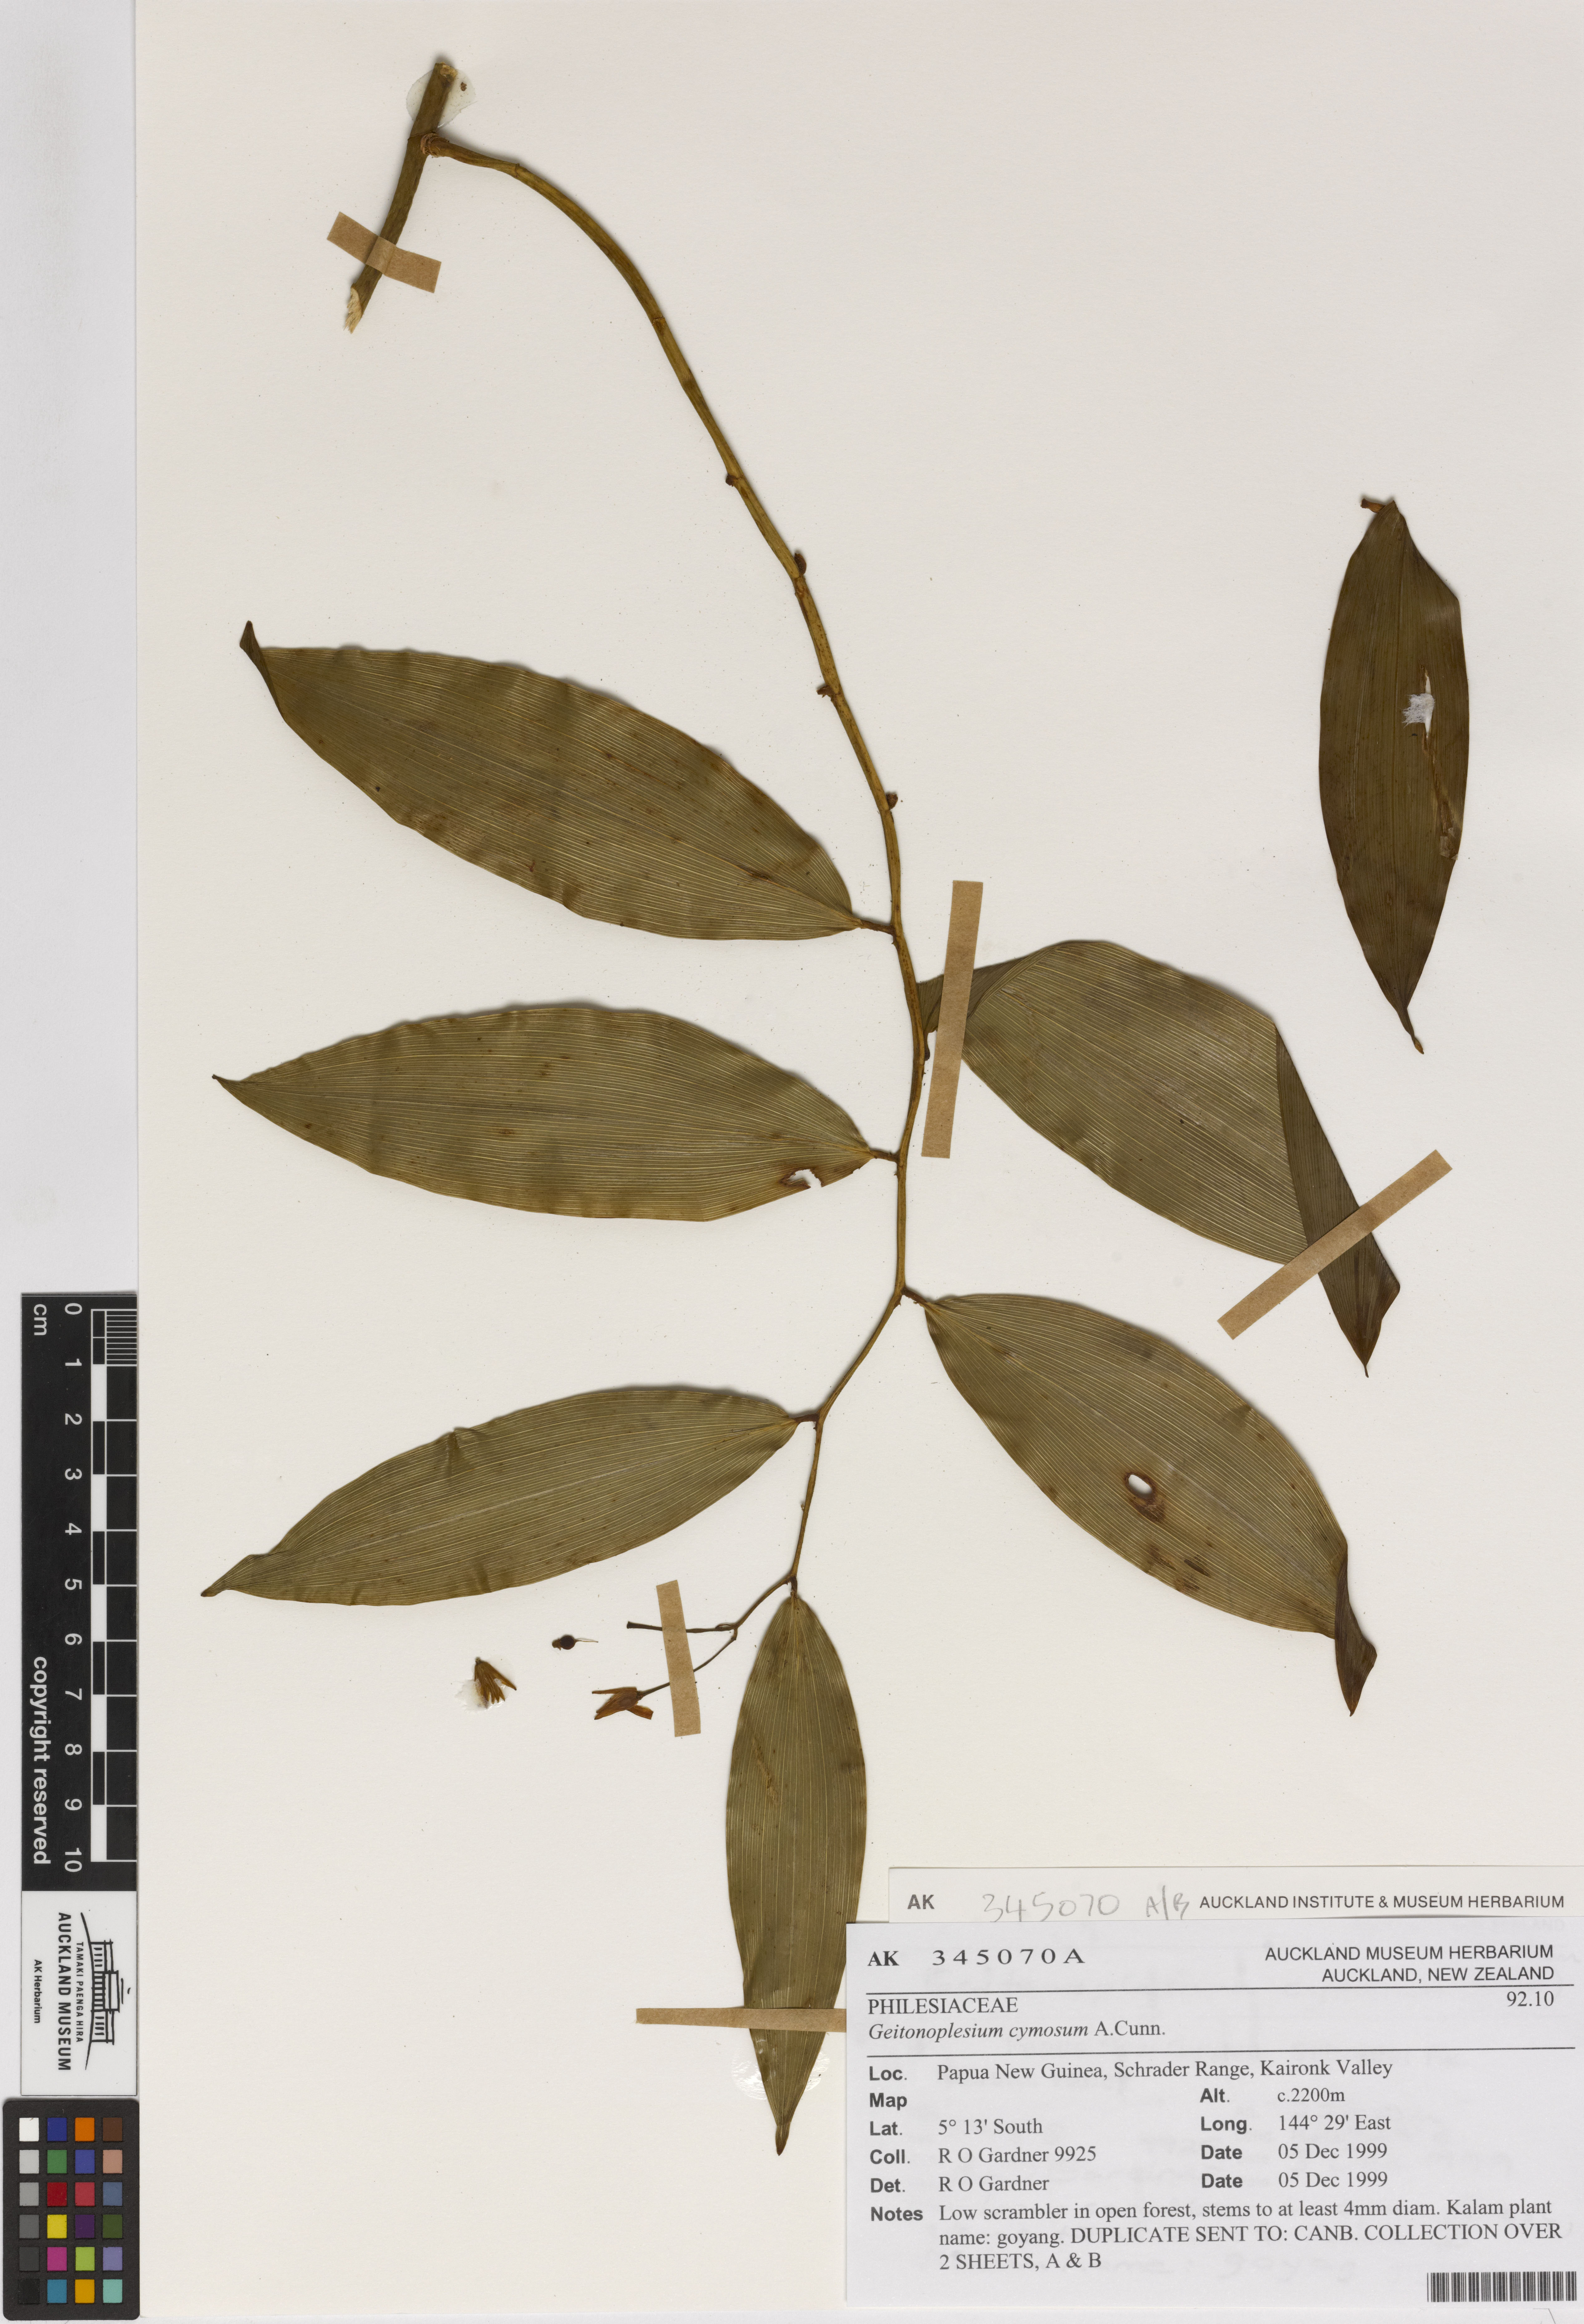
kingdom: Plantae
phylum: Tracheophyta
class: Liliopsida
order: Asparagales
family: Asphodelaceae
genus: Geitonoplesium
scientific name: Geitonoplesium cymosum
